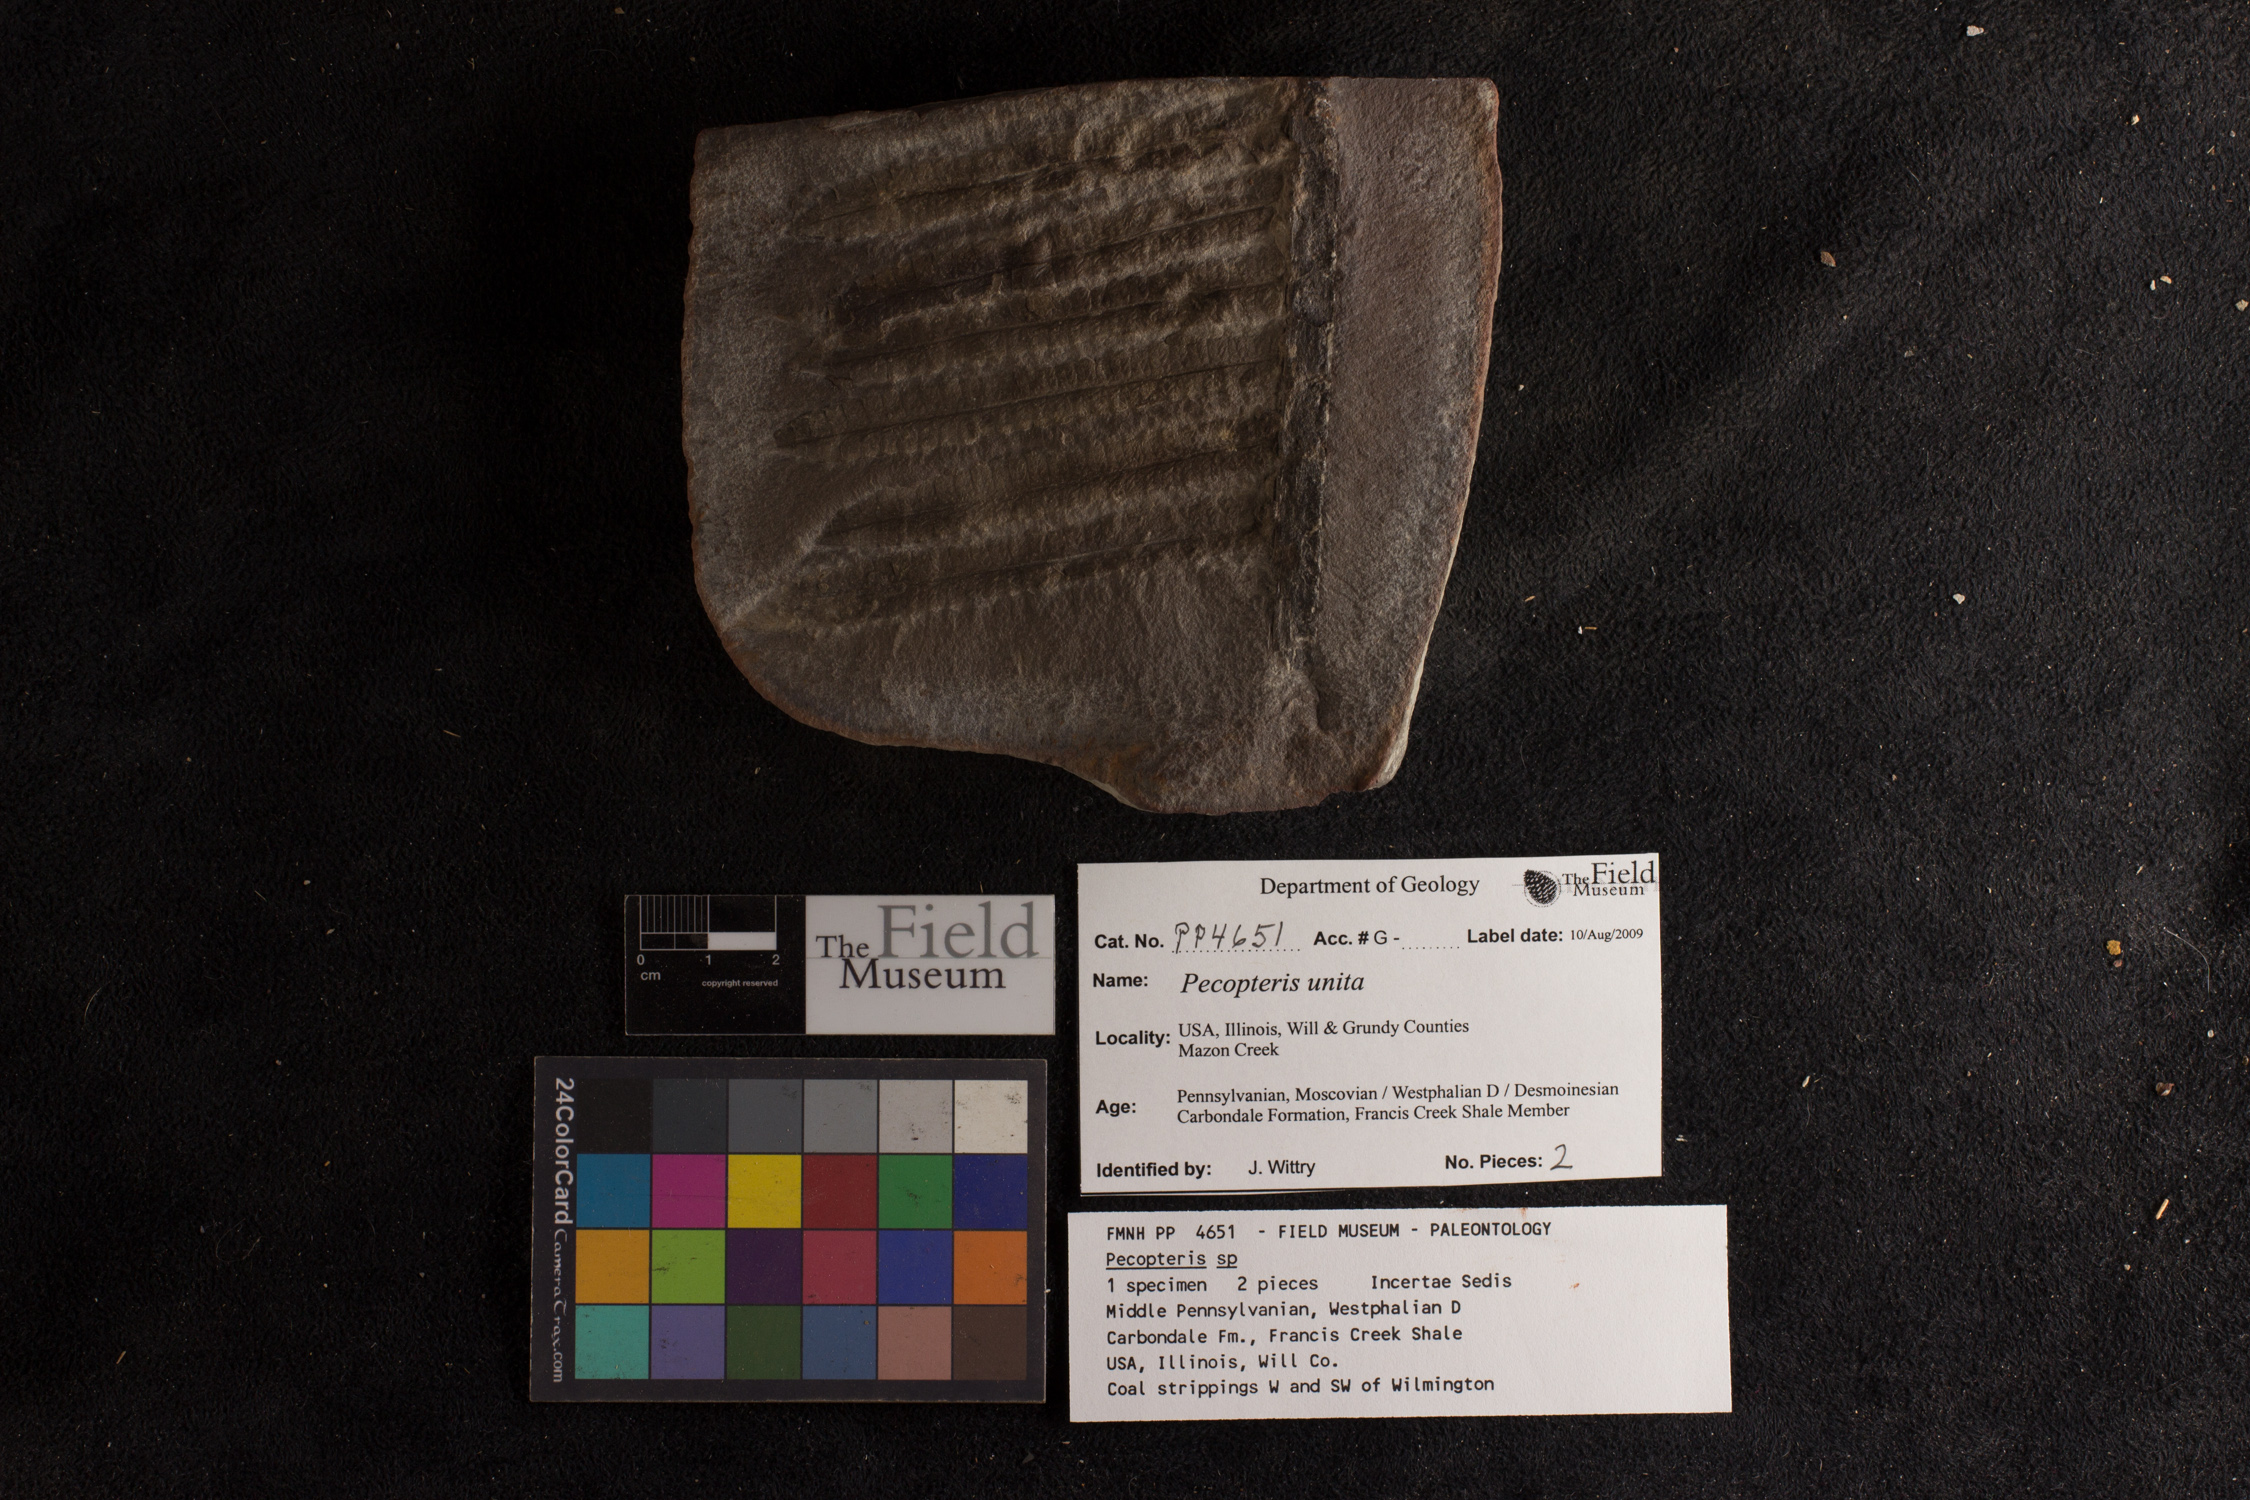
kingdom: Plantae
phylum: Tracheophyta
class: Polypodiopsida
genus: Diplazites
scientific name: Diplazites
